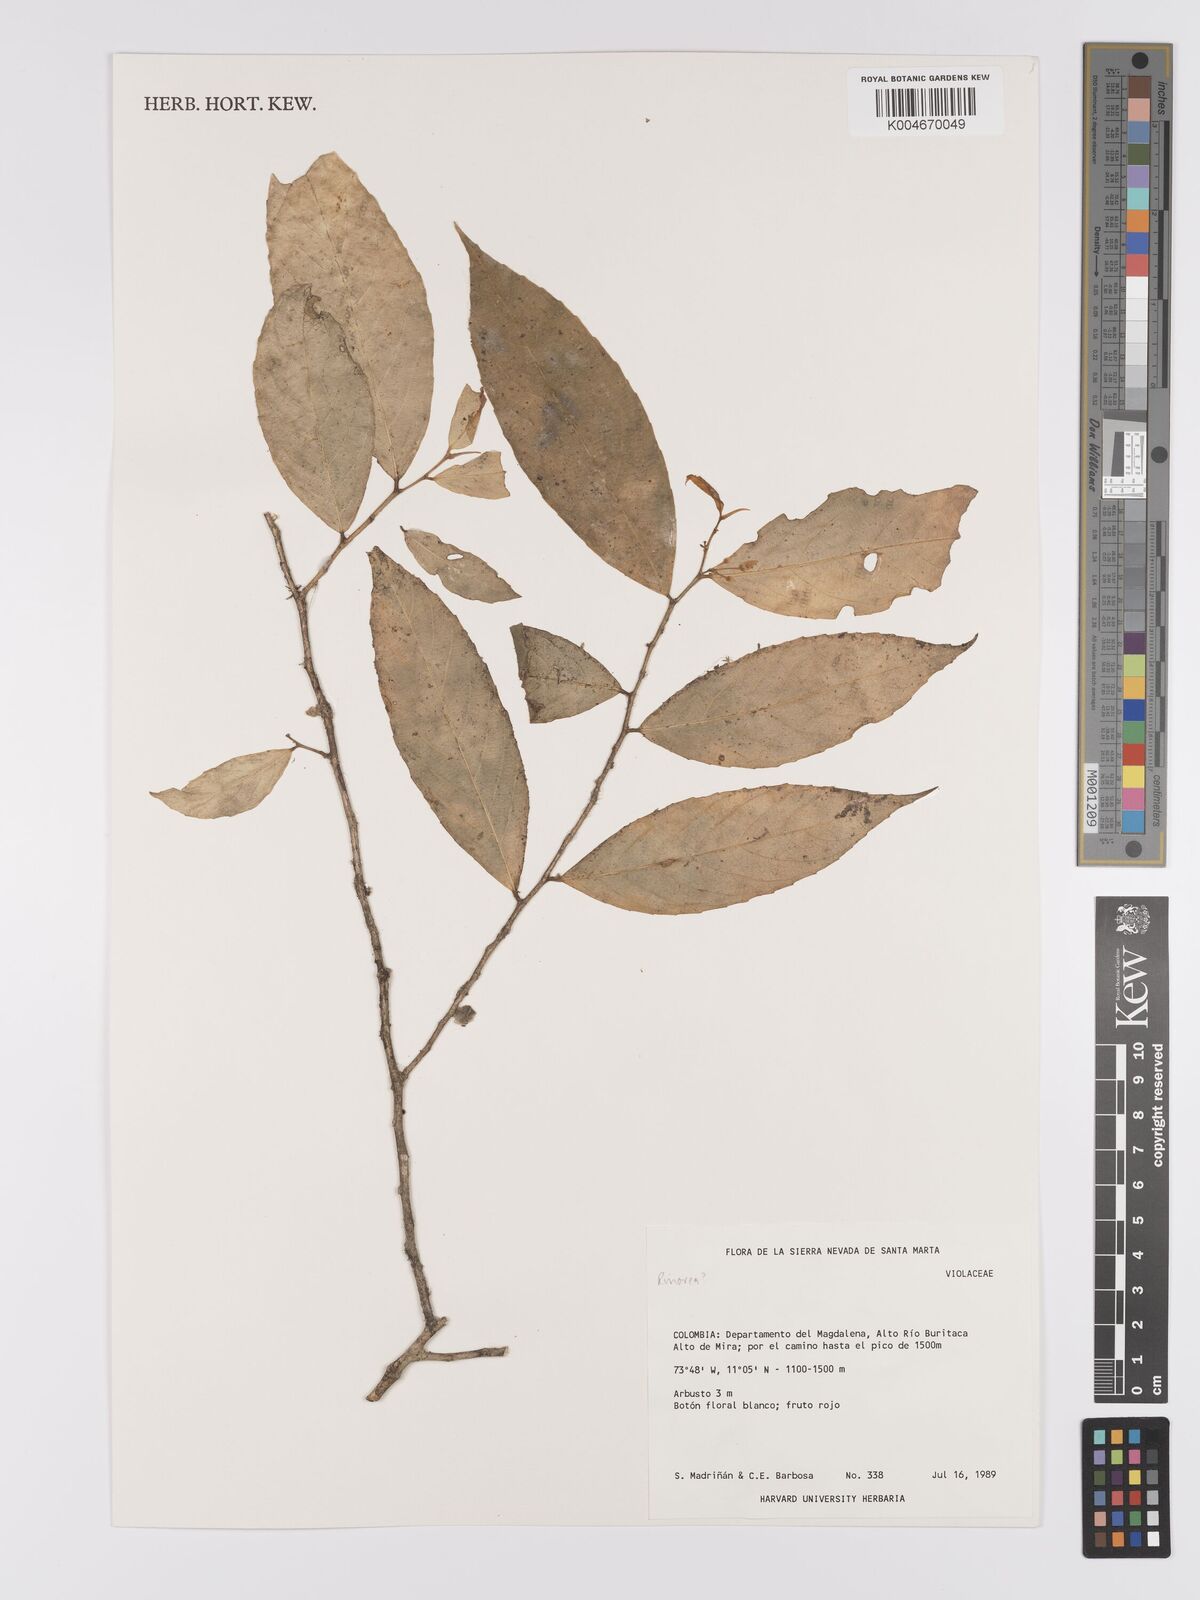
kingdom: Plantae
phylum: Tracheophyta
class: Magnoliopsida
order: Malpighiales
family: Violaceae
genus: Rinorea
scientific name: Rinorea
